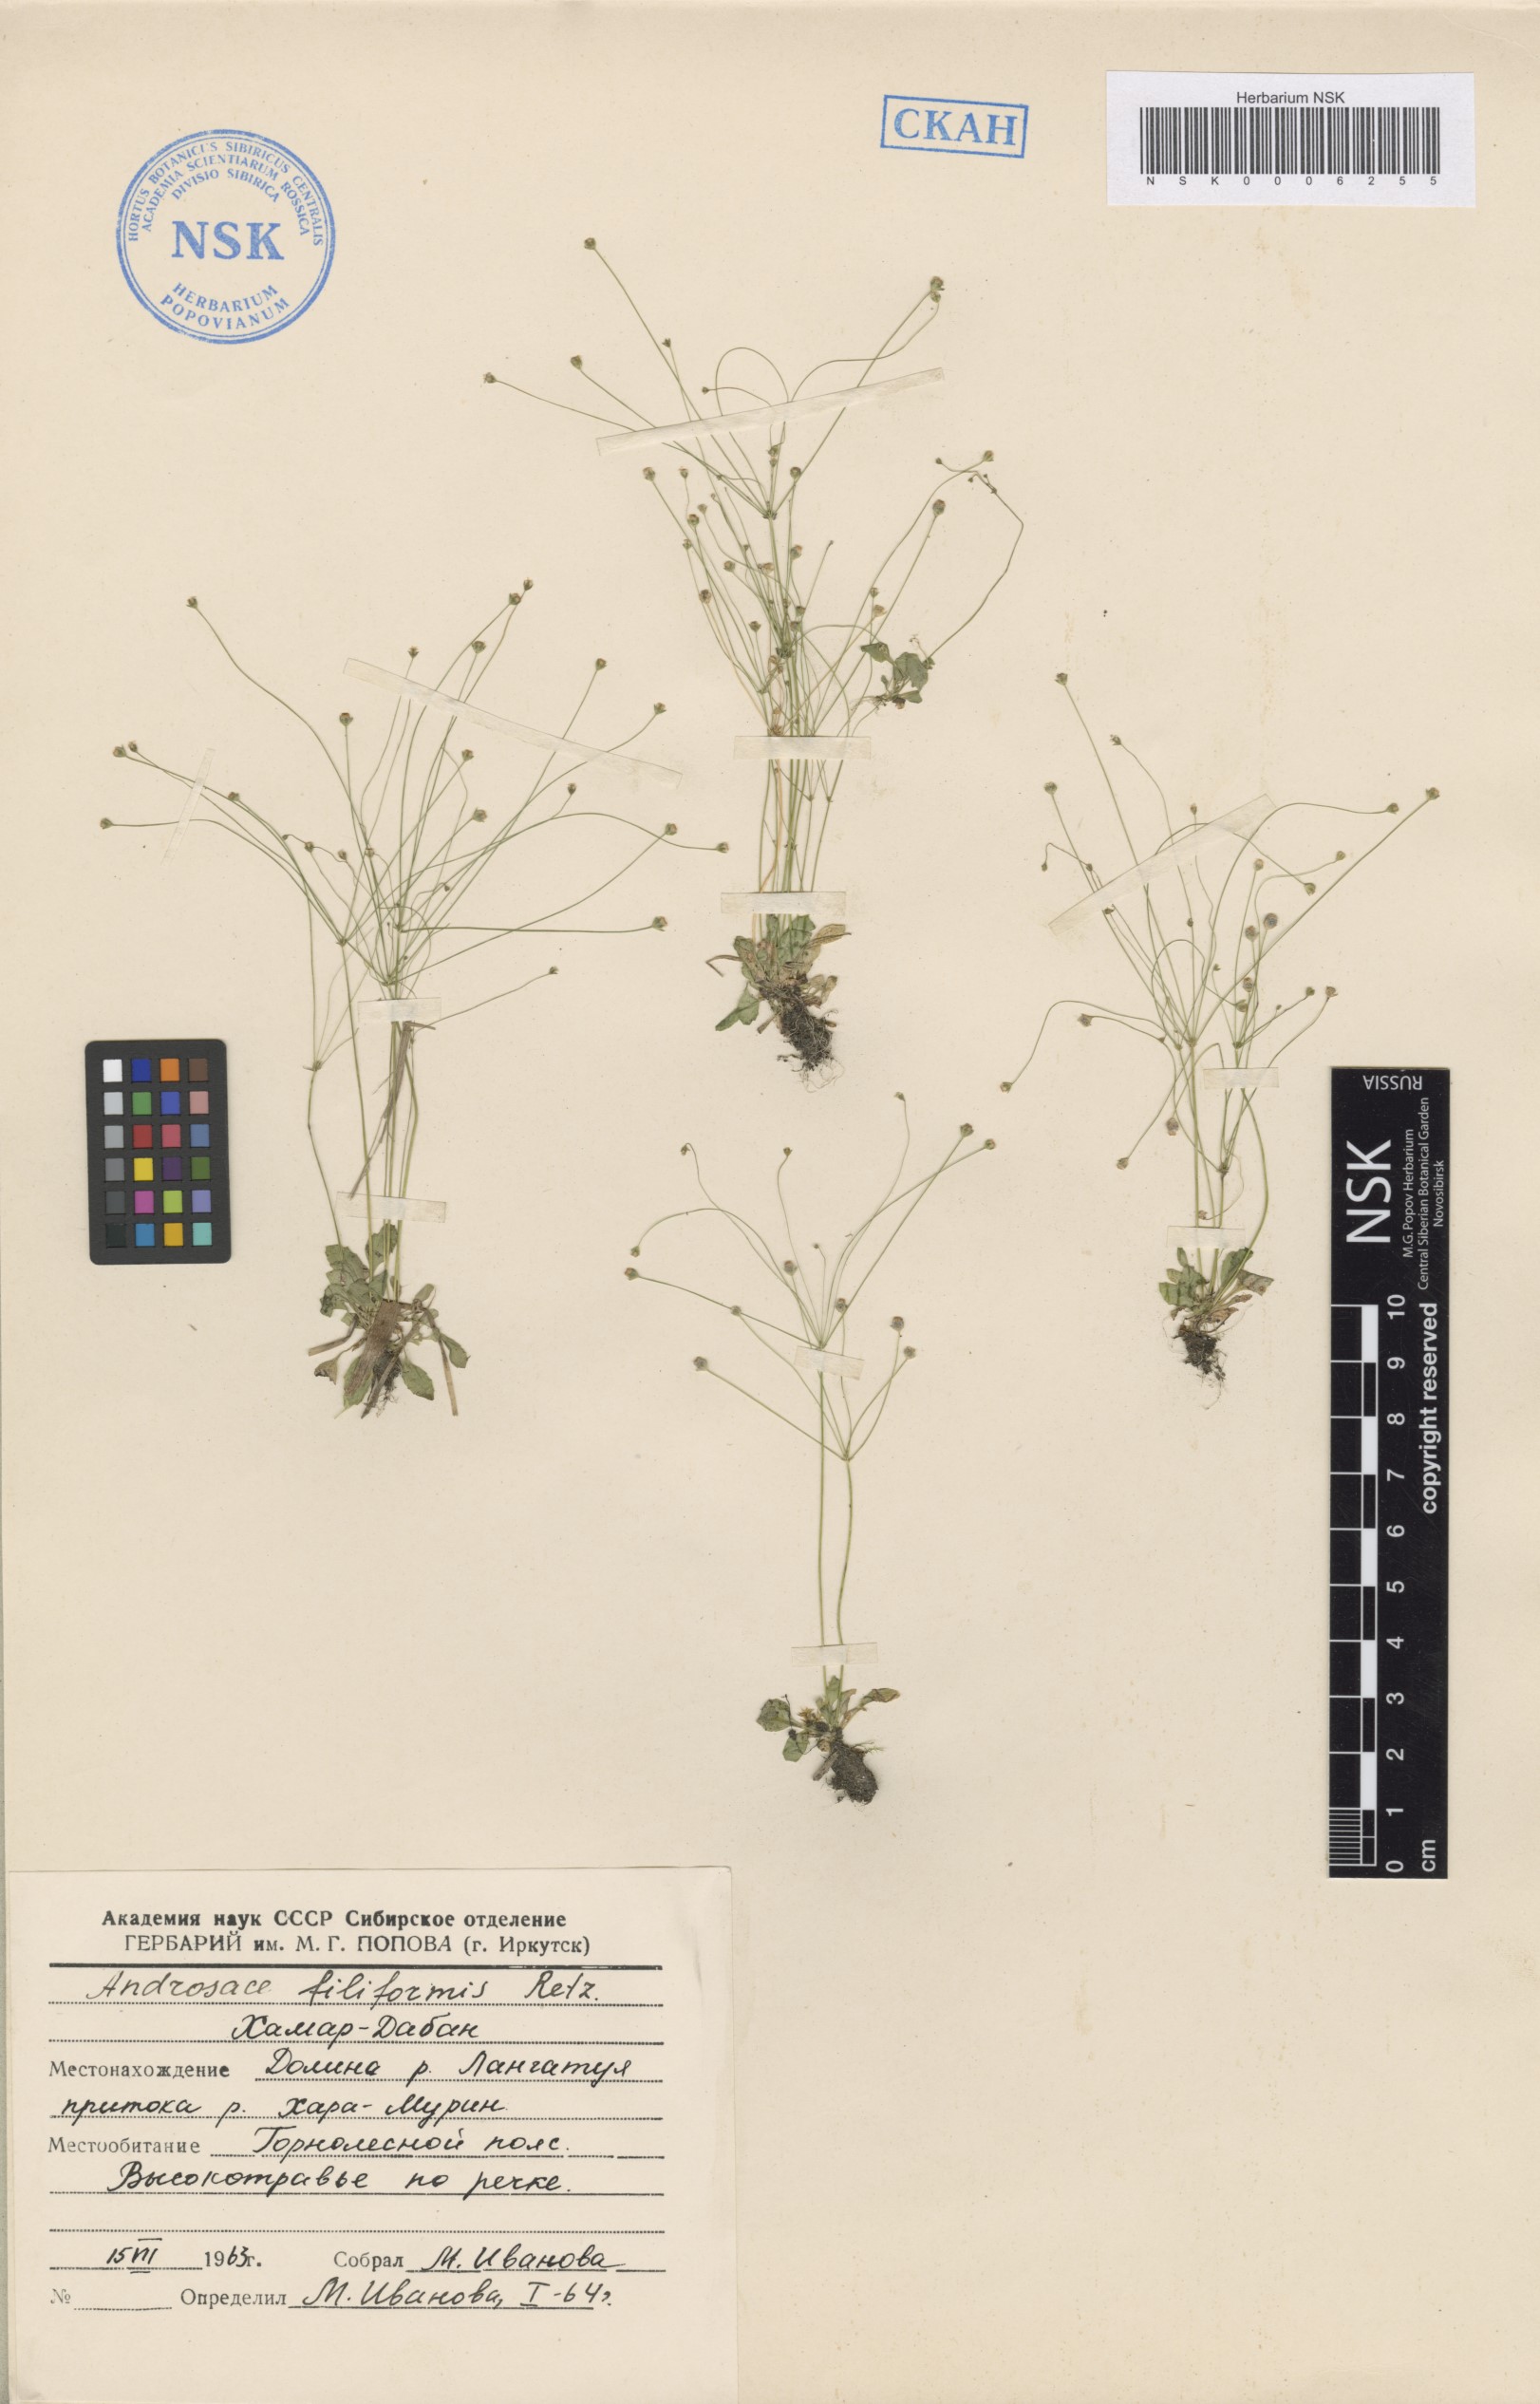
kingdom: Plantae
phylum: Tracheophyta
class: Magnoliopsida
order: Ericales
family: Primulaceae
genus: Androsace
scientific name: Androsace filiformis
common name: Filiform rock jasmine
